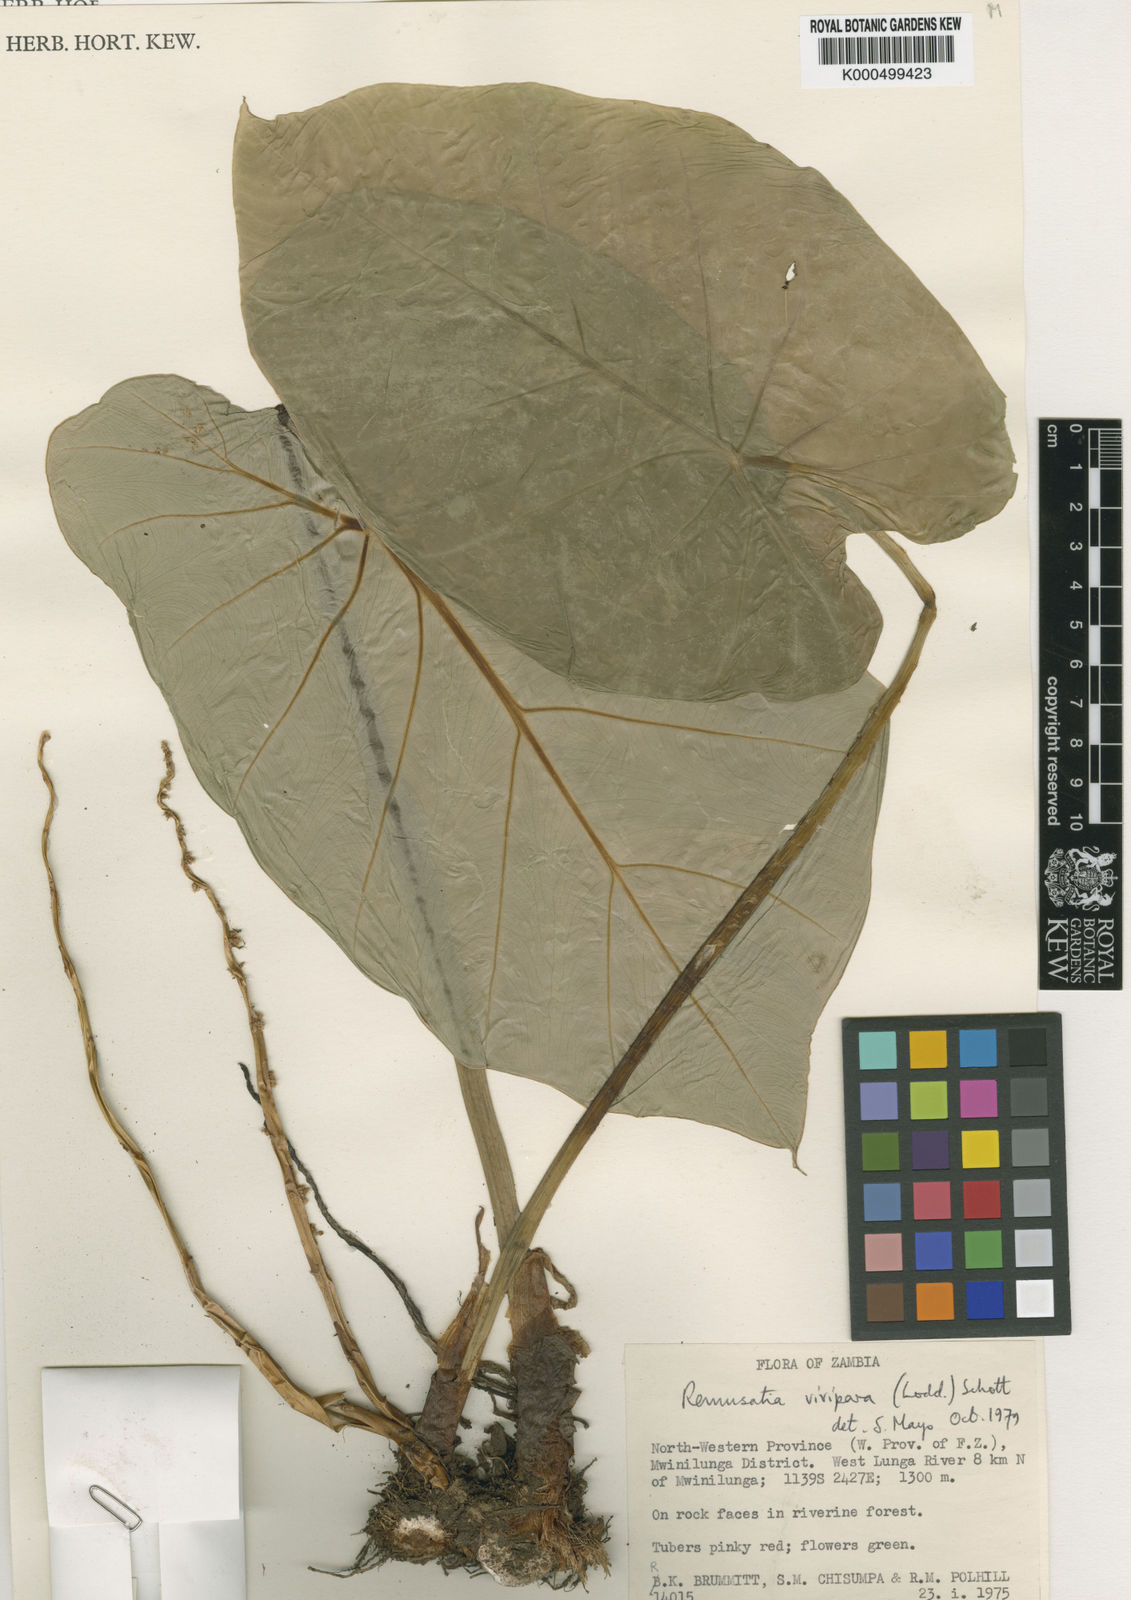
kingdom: Plantae
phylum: Tracheophyta
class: Liliopsida
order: Alismatales
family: Araceae
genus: Remusatia
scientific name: Remusatia vivipara
